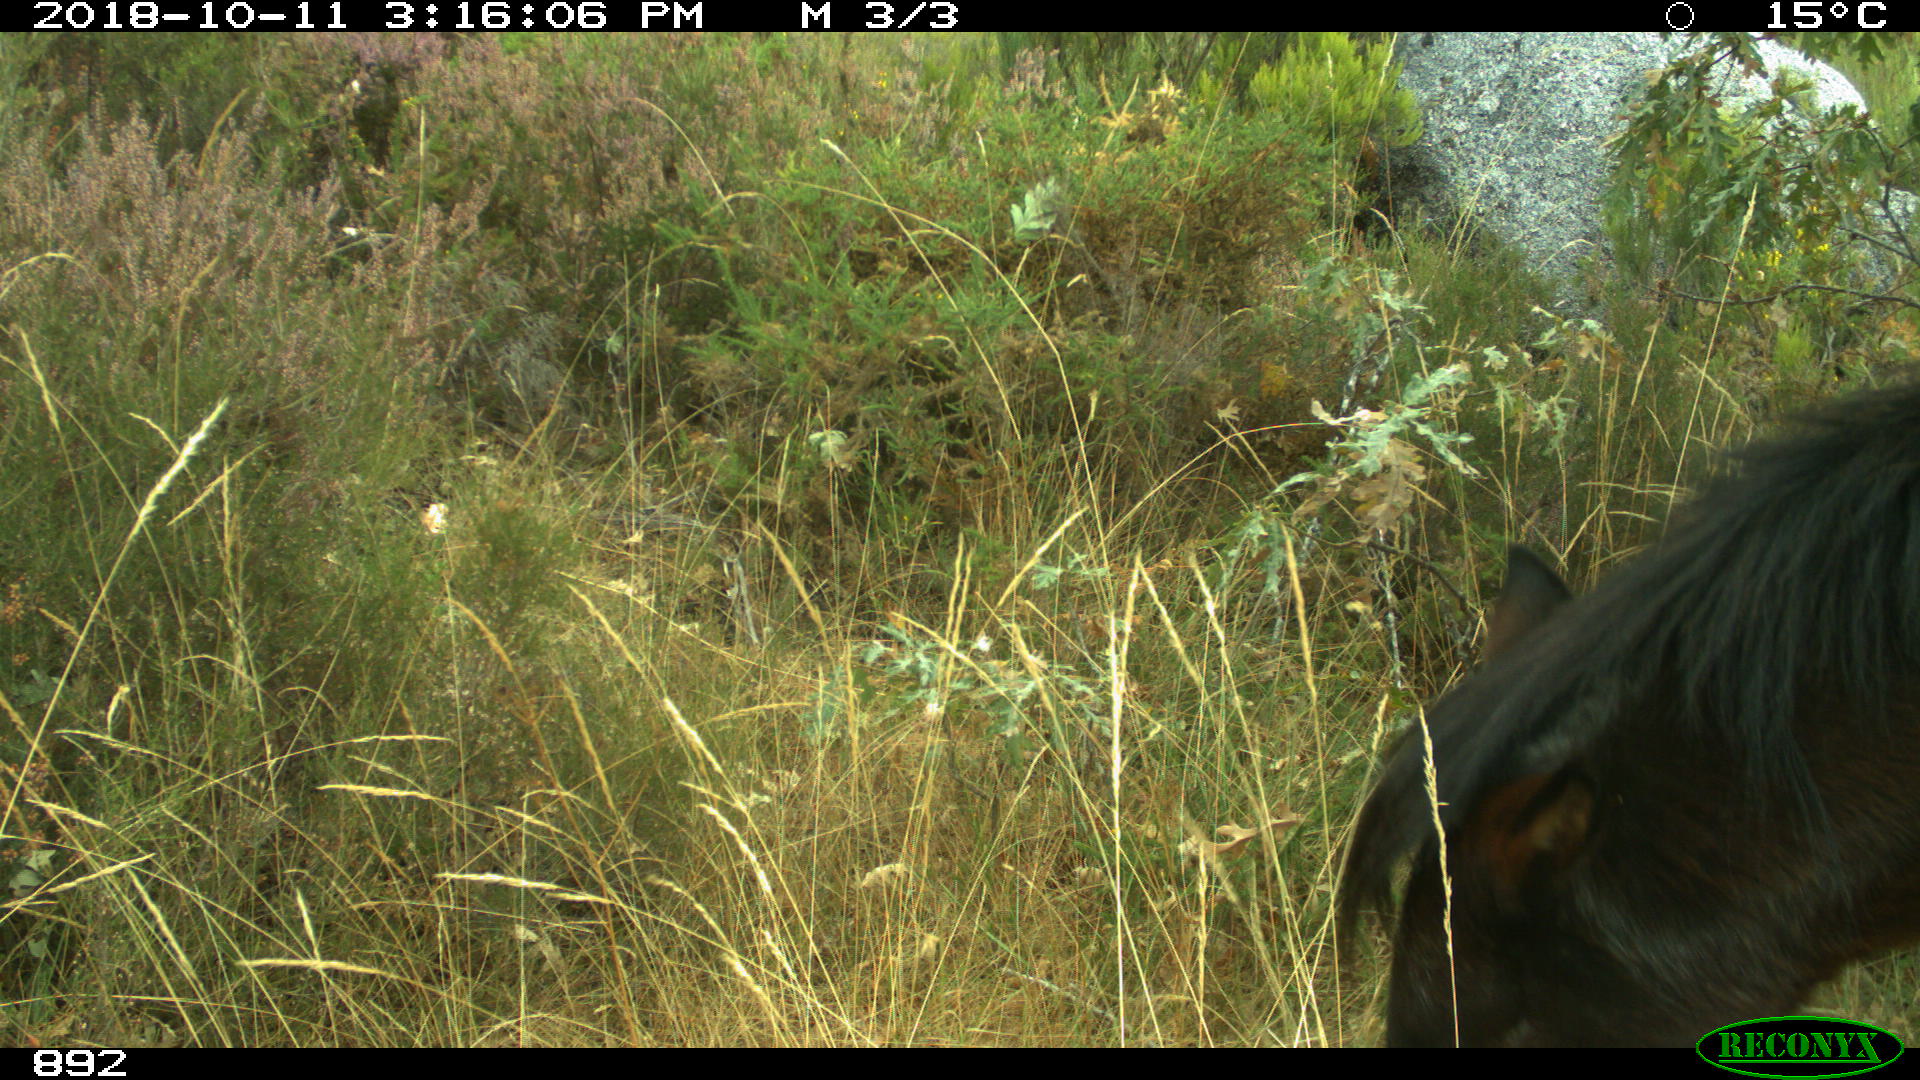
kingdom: Animalia
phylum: Chordata
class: Mammalia
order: Perissodactyla
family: Equidae
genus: Equus
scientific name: Equus caballus
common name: Horse
